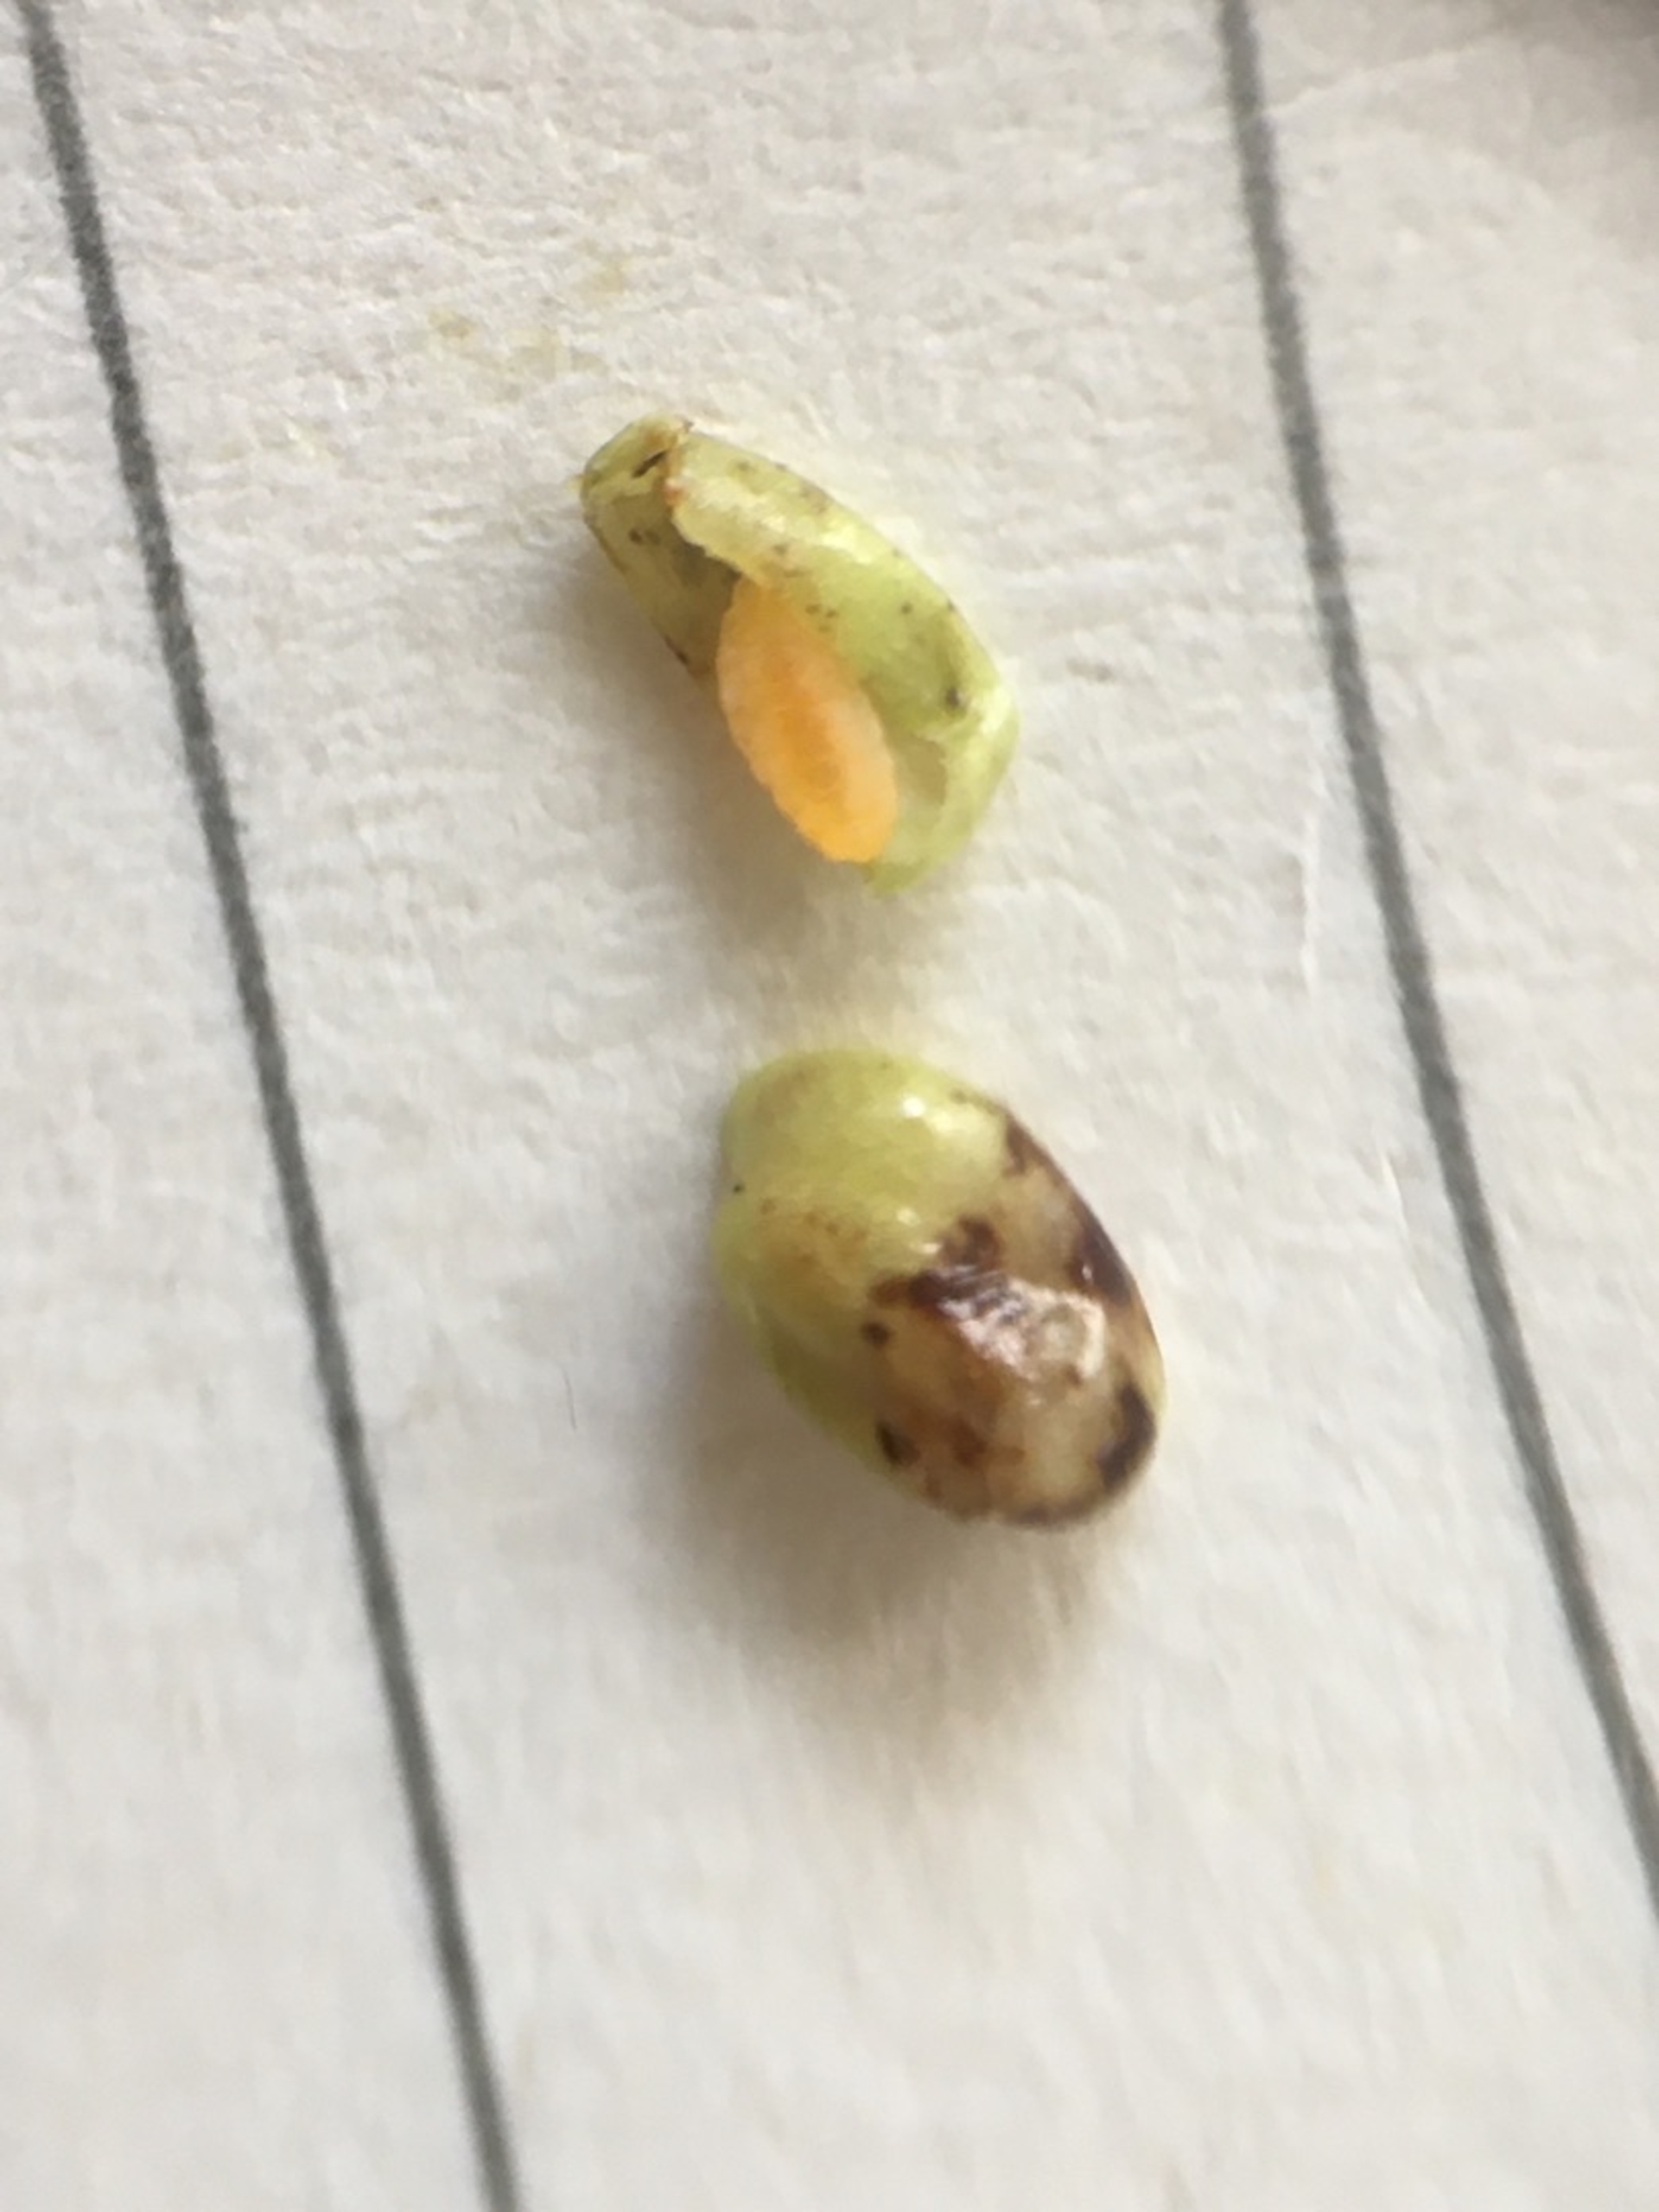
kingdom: Animalia
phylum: Arthropoda
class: Insecta
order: Diptera
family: Cecidomyiidae
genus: Dasineura
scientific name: Dasineura fructicola
